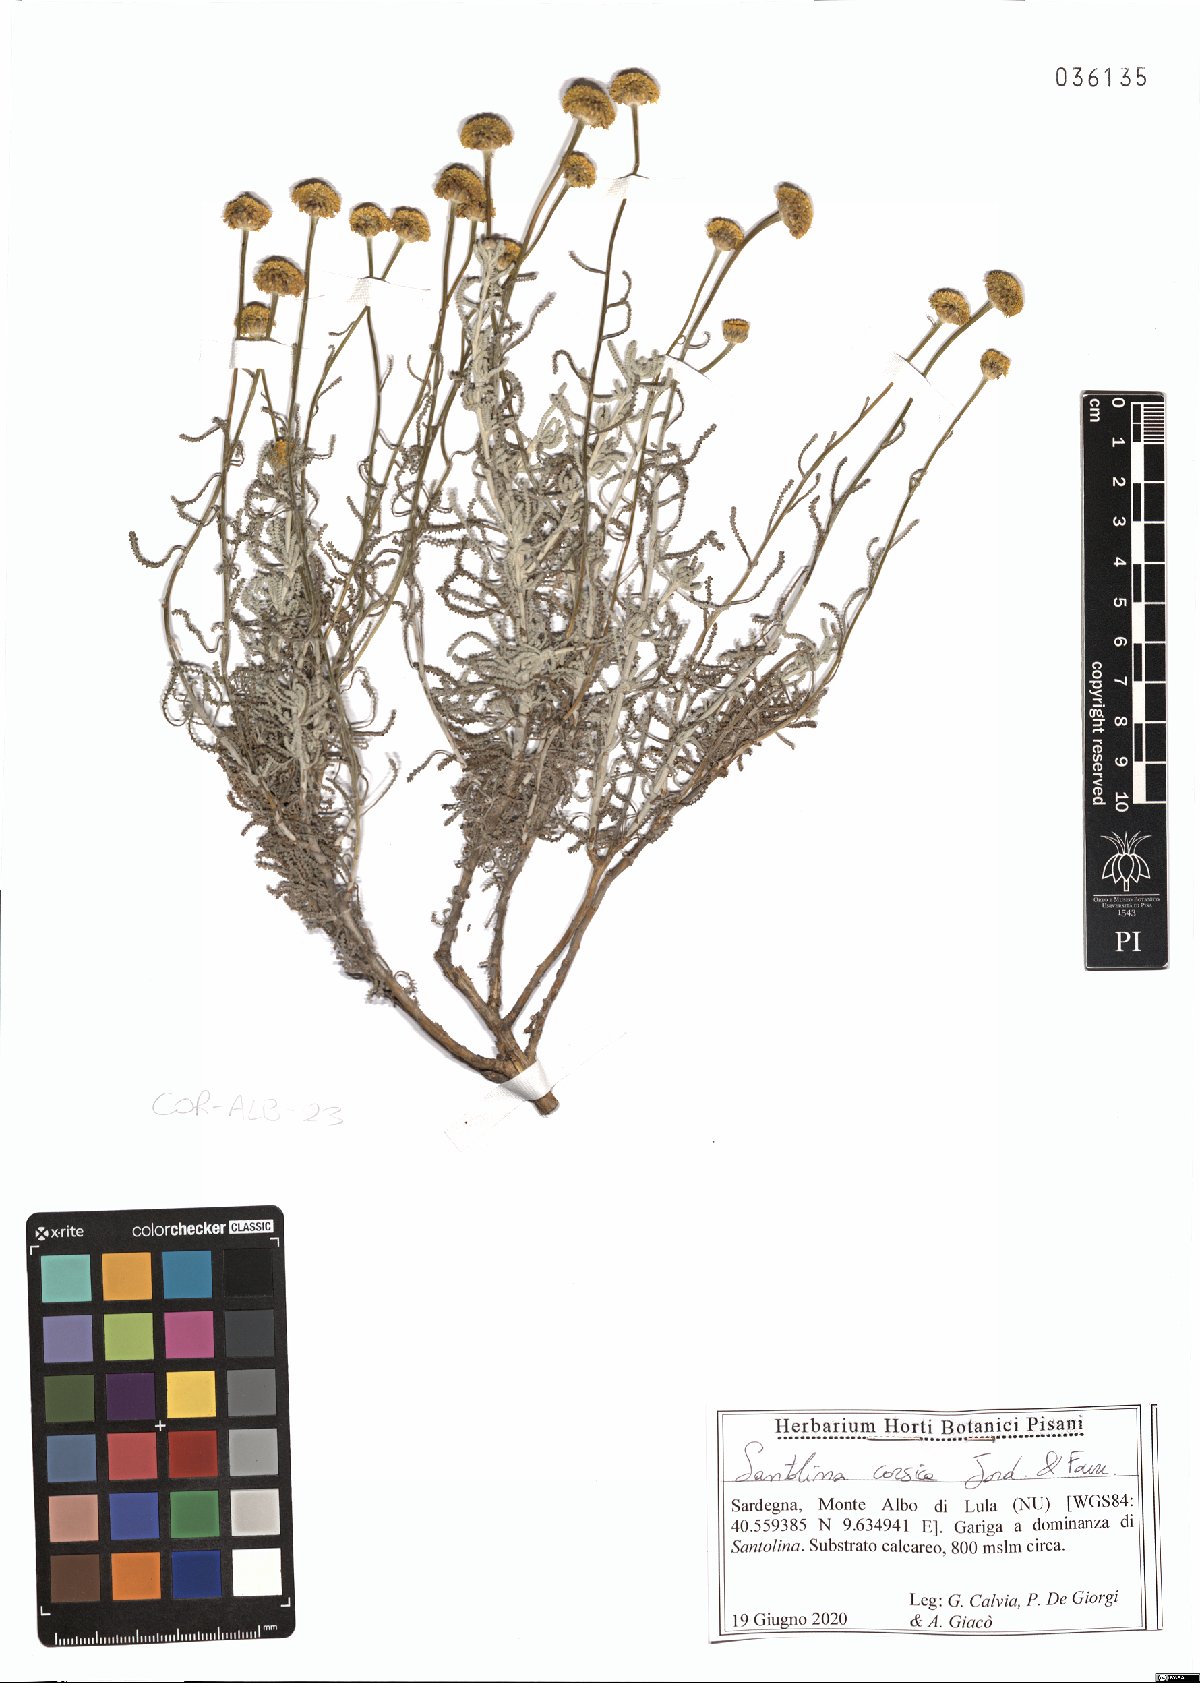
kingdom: Plantae
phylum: Tracheophyta
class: Magnoliopsida
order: Asterales
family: Asteraceae
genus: Santolina
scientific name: Santolina corsica
